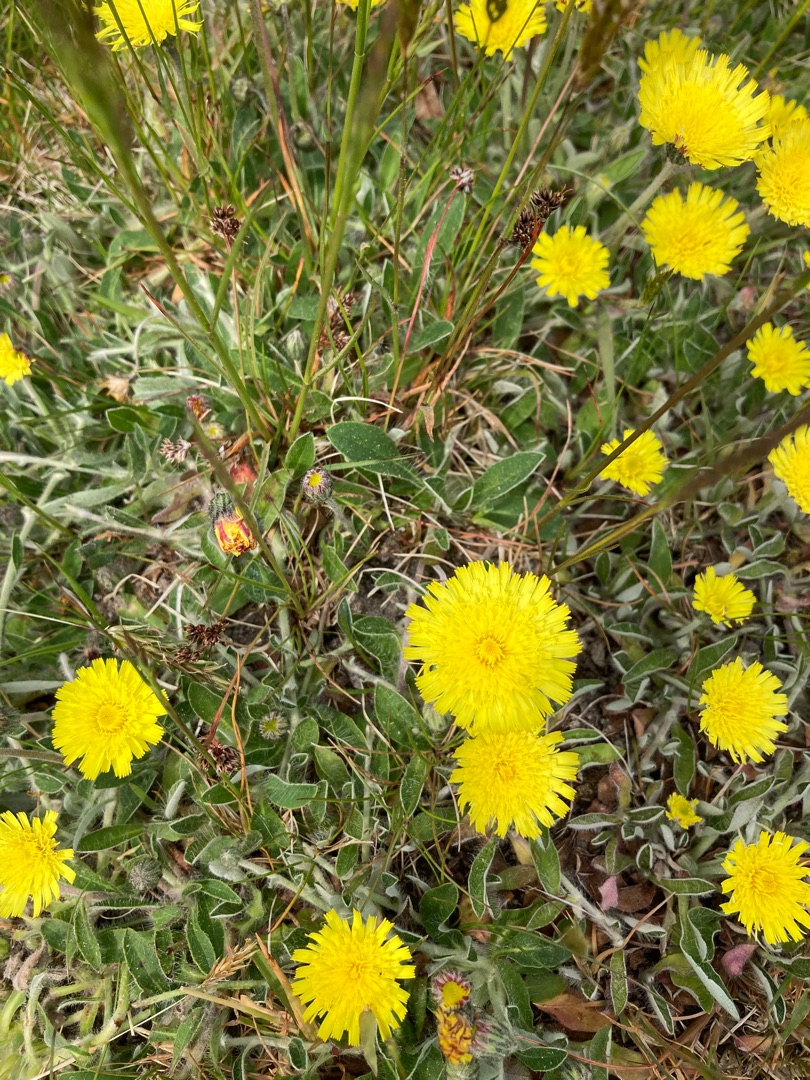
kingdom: Plantae
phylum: Tracheophyta
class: Magnoliopsida
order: Asterales
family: Asteraceae
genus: Pilosella
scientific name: Pilosella officinarum
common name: Håret høgeurt
